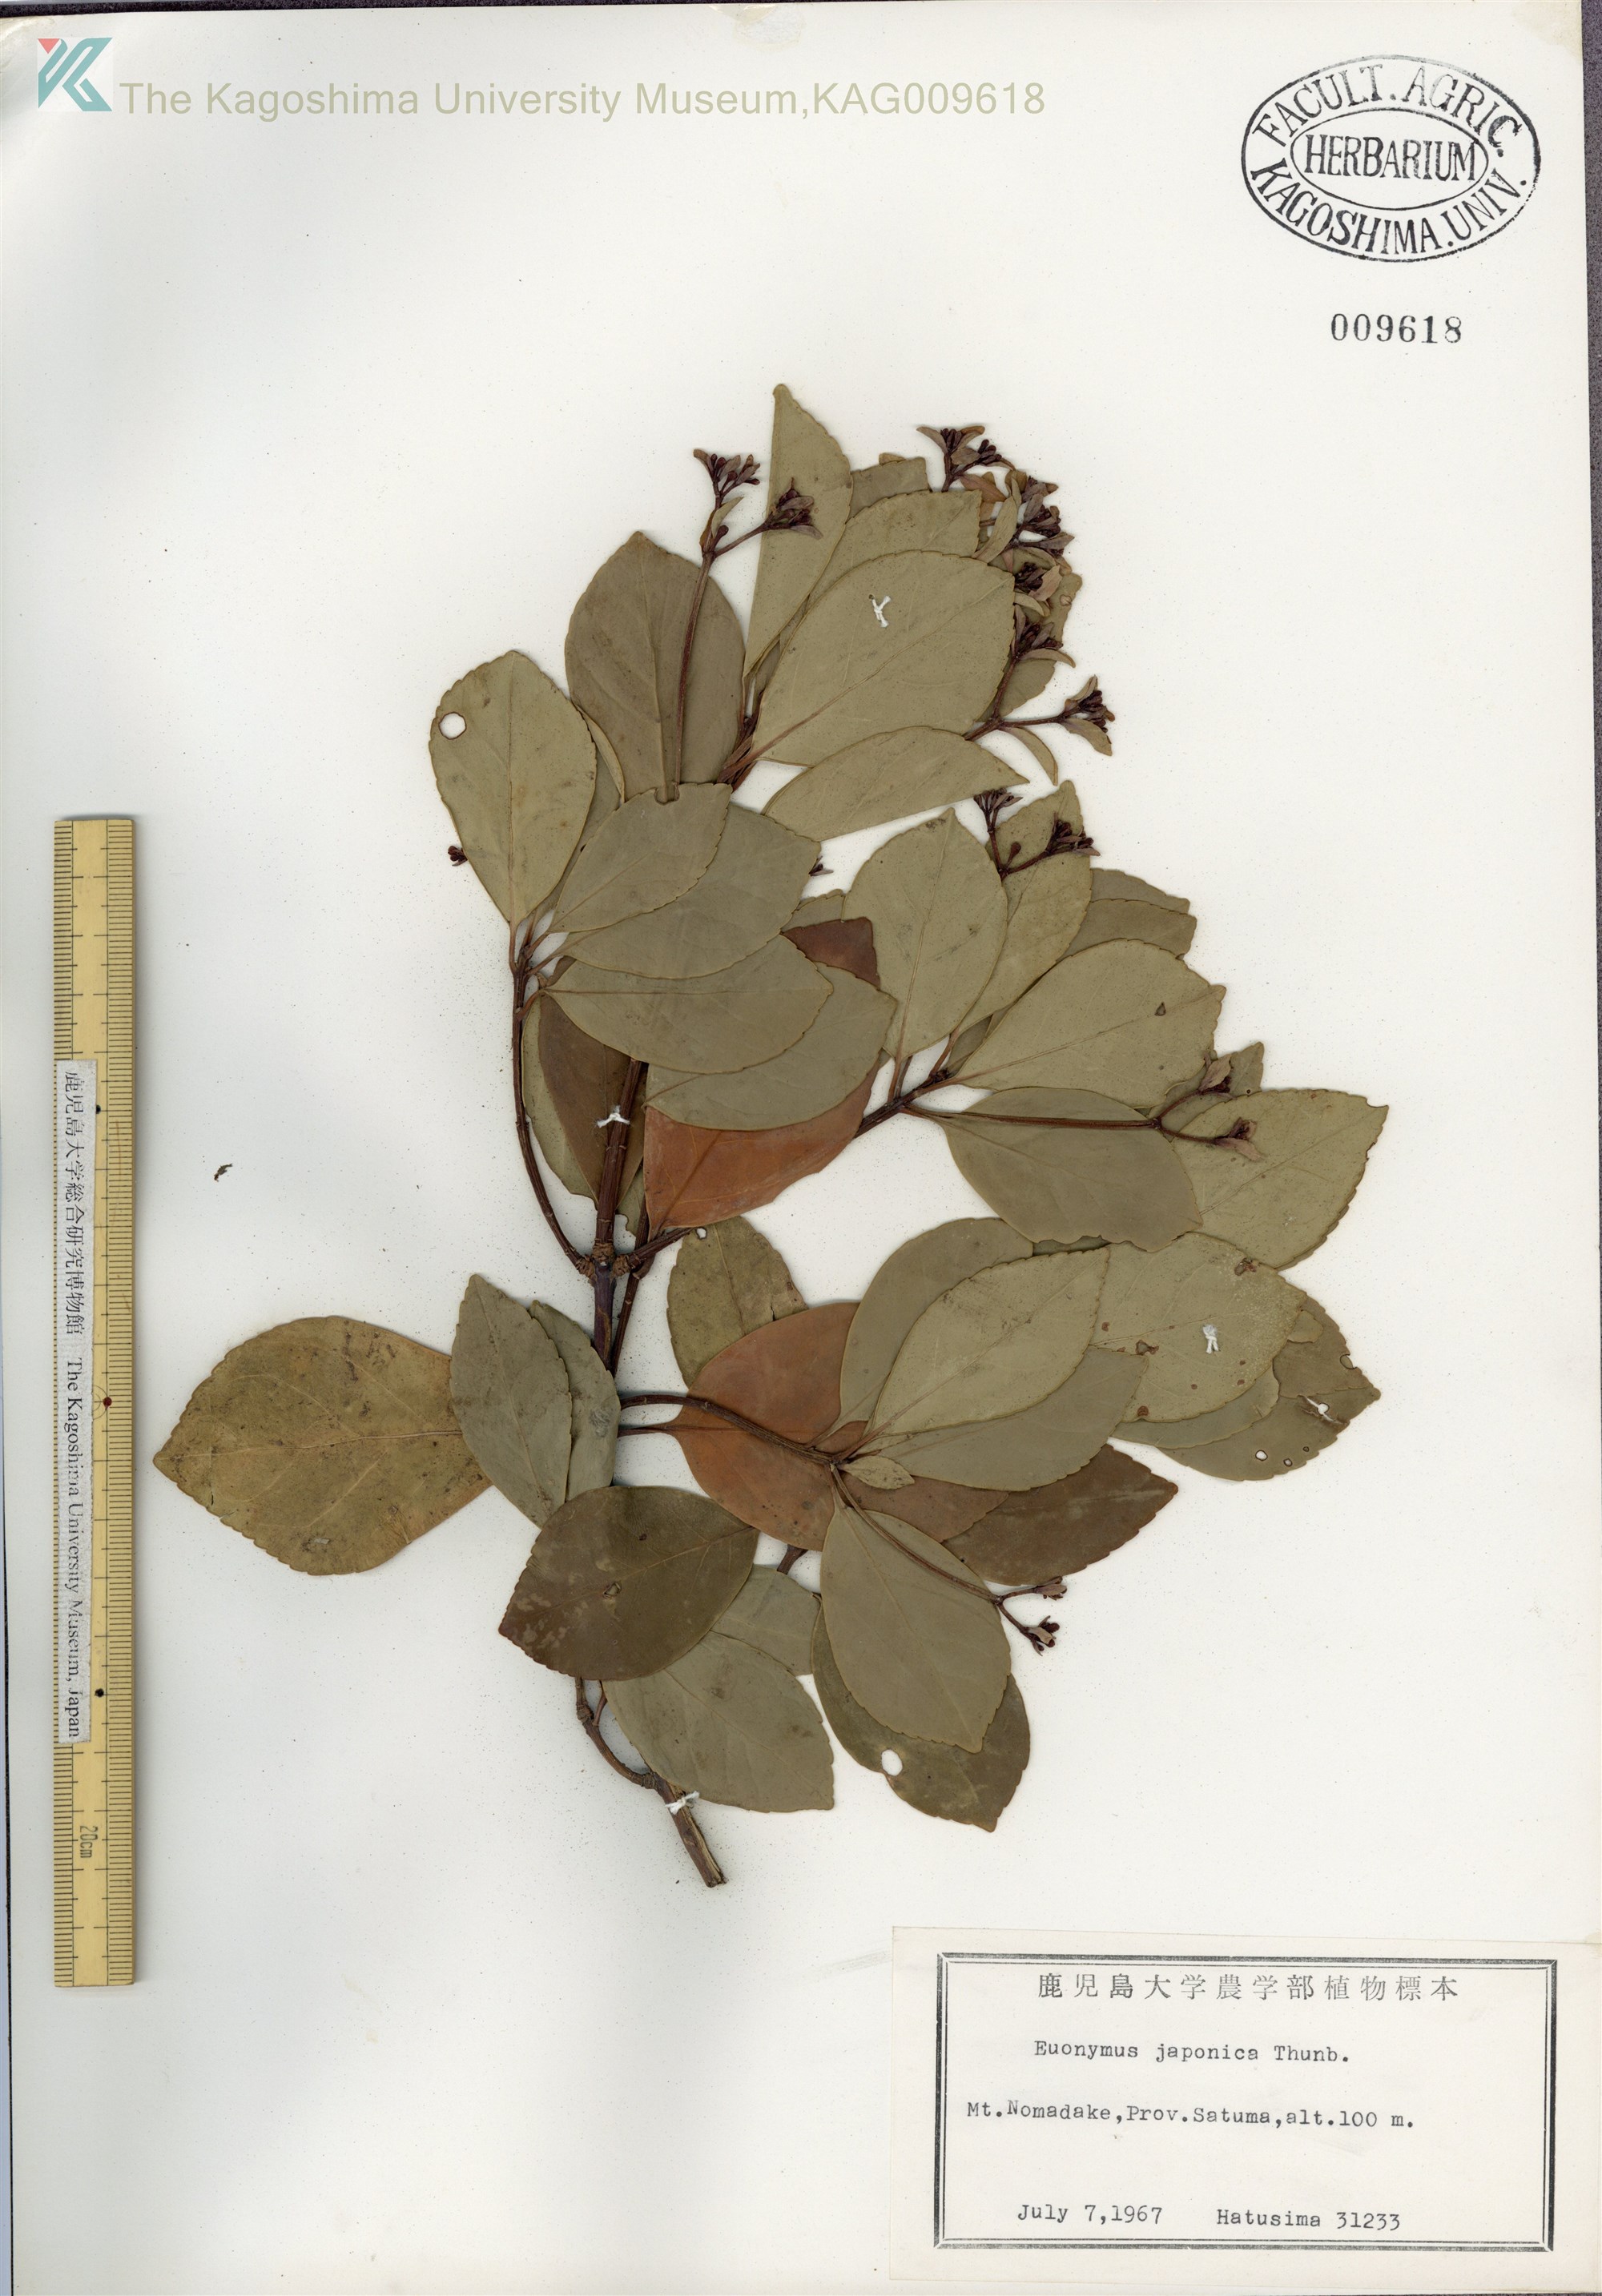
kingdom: Plantae
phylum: Tracheophyta
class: Magnoliopsida
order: Celastrales
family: Celastraceae
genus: Euonymus
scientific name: Euonymus japonicus
